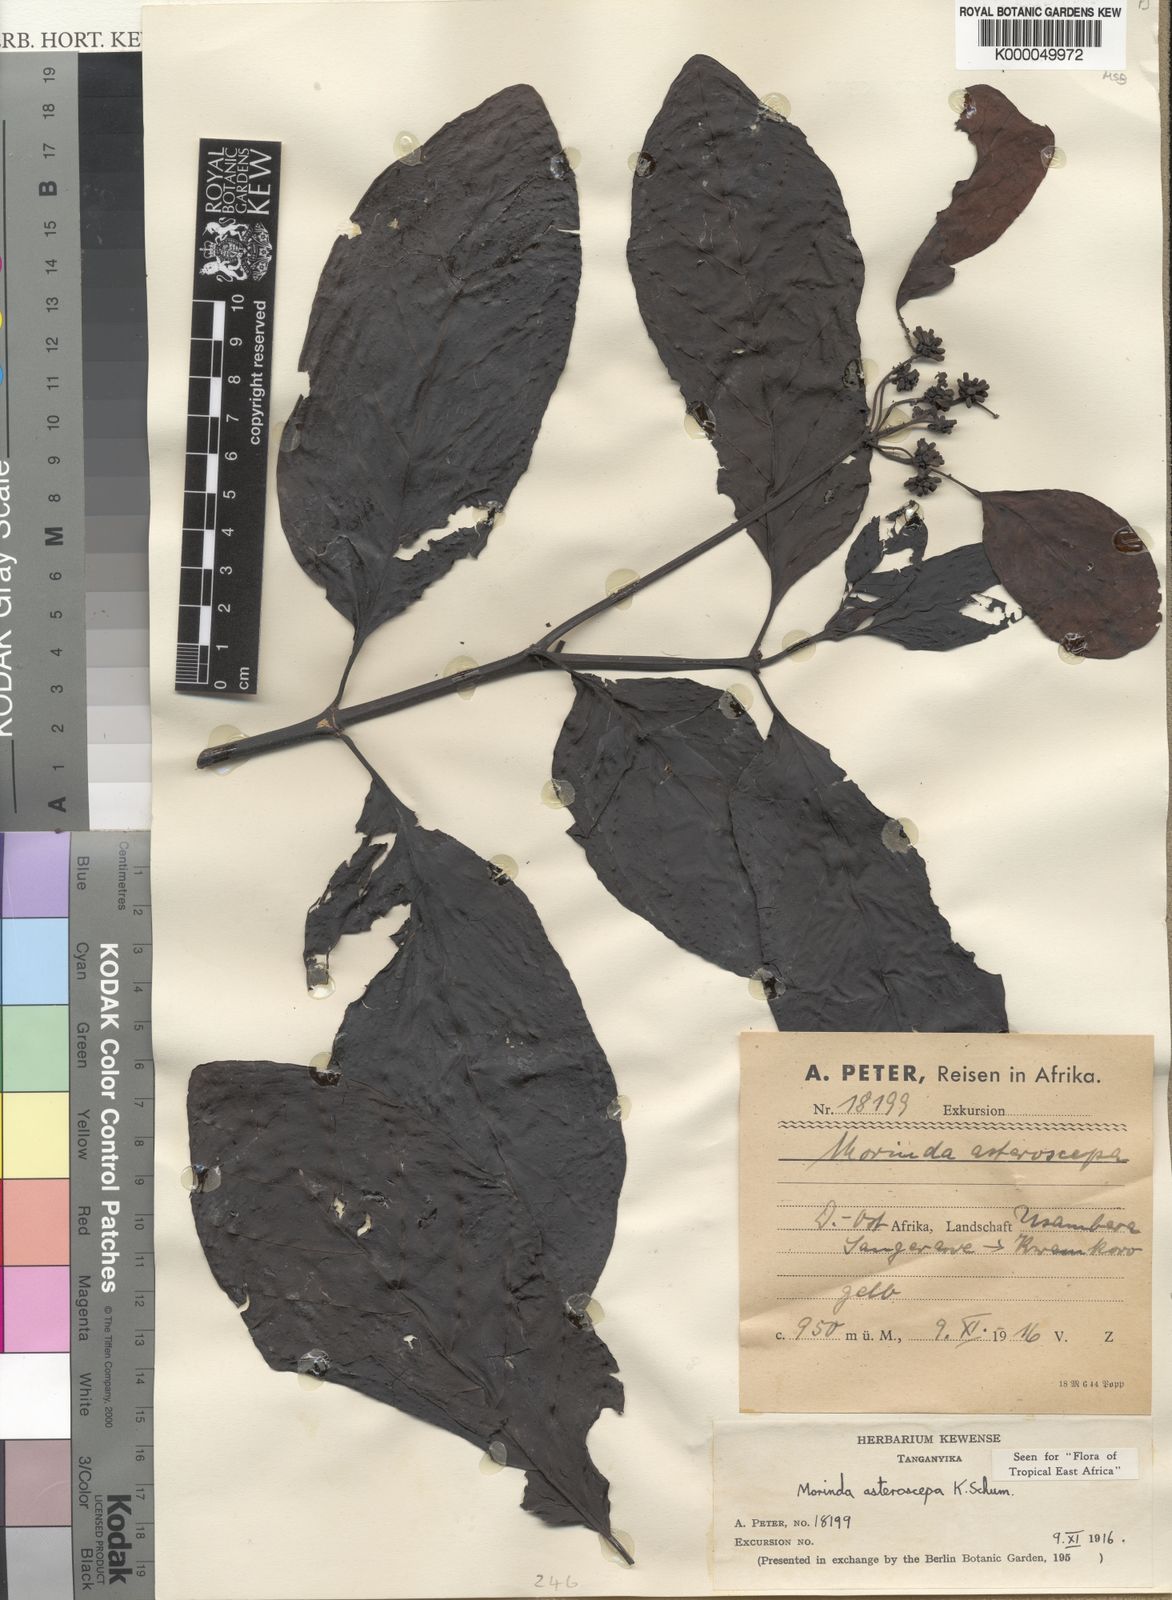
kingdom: Plantae
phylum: Tracheophyta
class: Magnoliopsida
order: Gentianales
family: Rubiaceae
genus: Morinda
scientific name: Morinda asteroscepa
